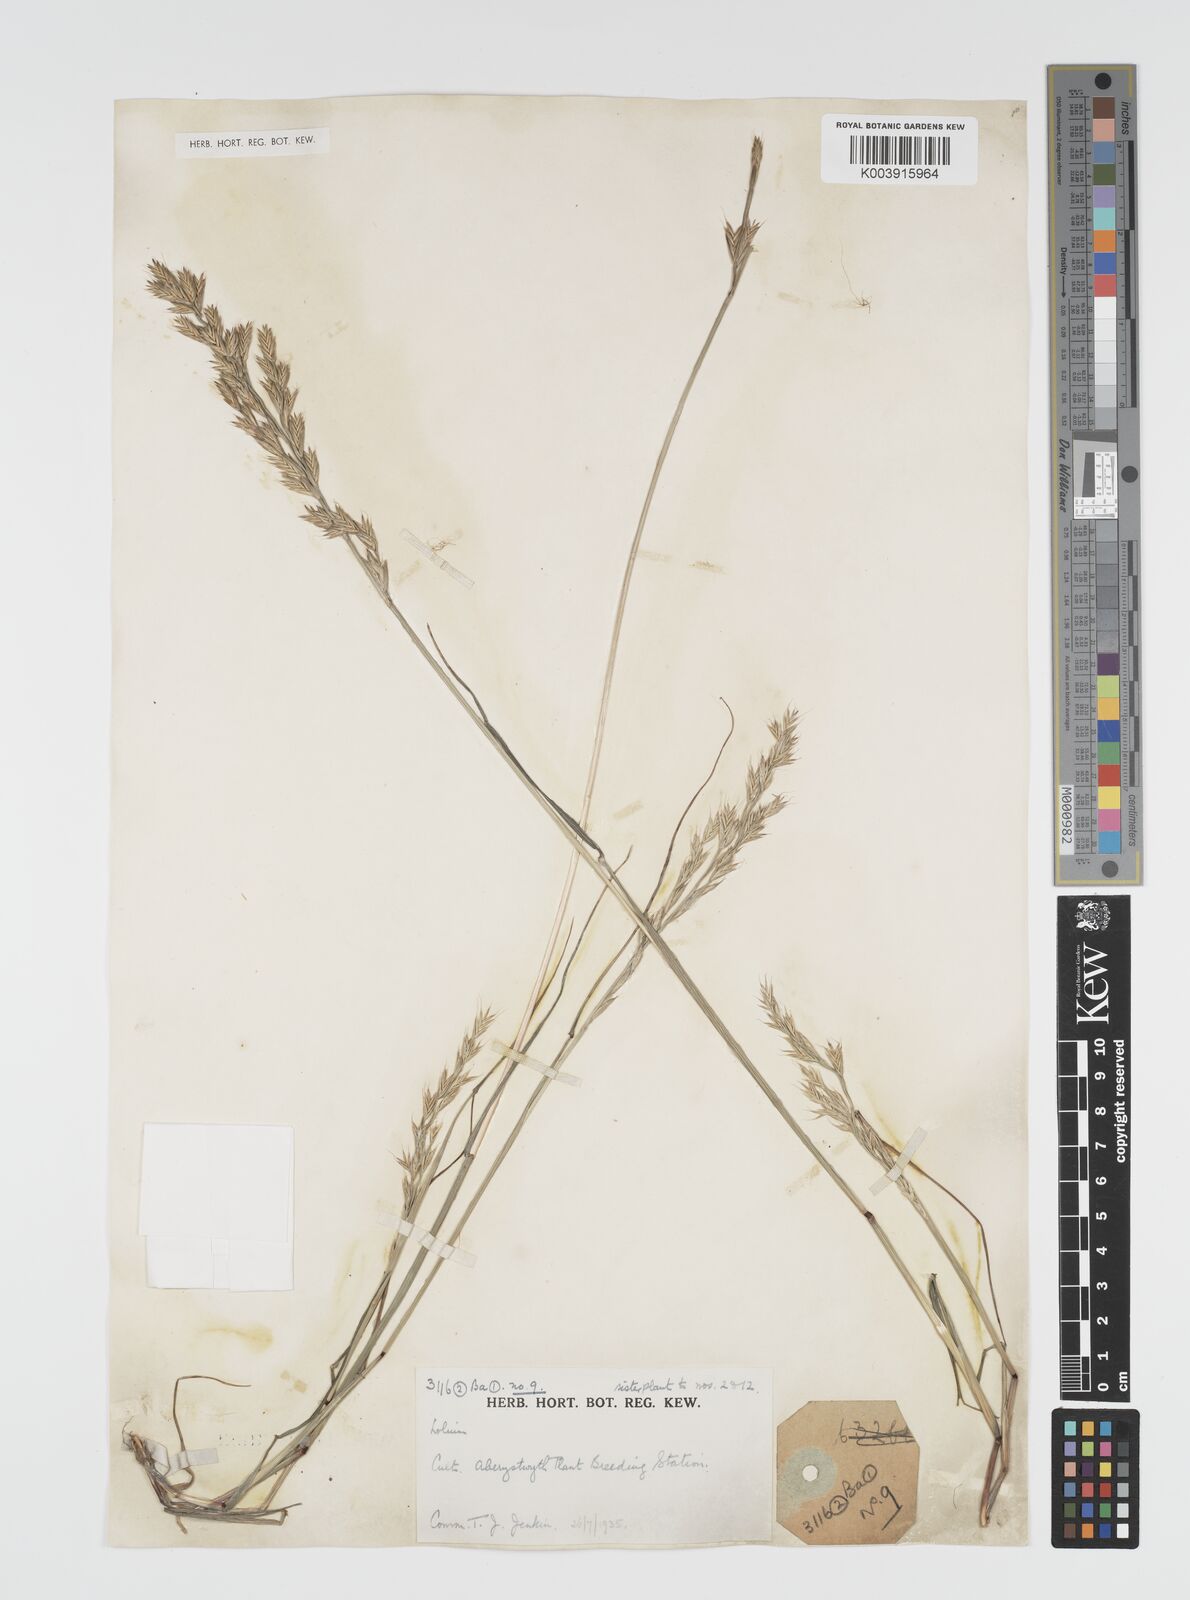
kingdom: Plantae
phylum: Tracheophyta
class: Liliopsida
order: Poales
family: Poaceae
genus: Lolium
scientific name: Lolium multiflorum
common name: Annual ryegrass
